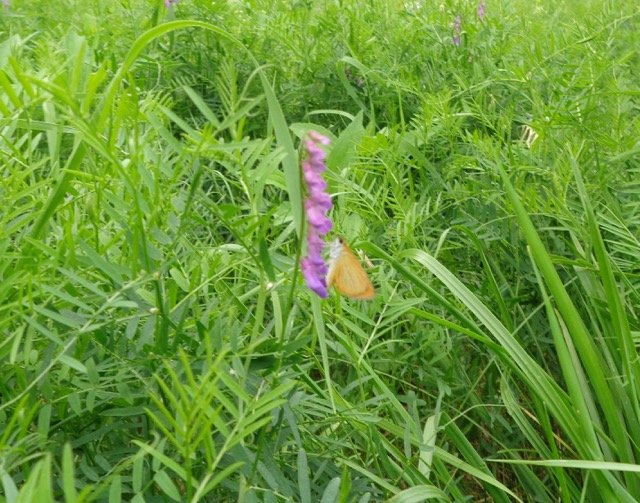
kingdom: Animalia
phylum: Arthropoda
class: Insecta
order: Lepidoptera
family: Hesperiidae
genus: Ancyloxypha
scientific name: Ancyloxypha numitor
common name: Least Skipper
